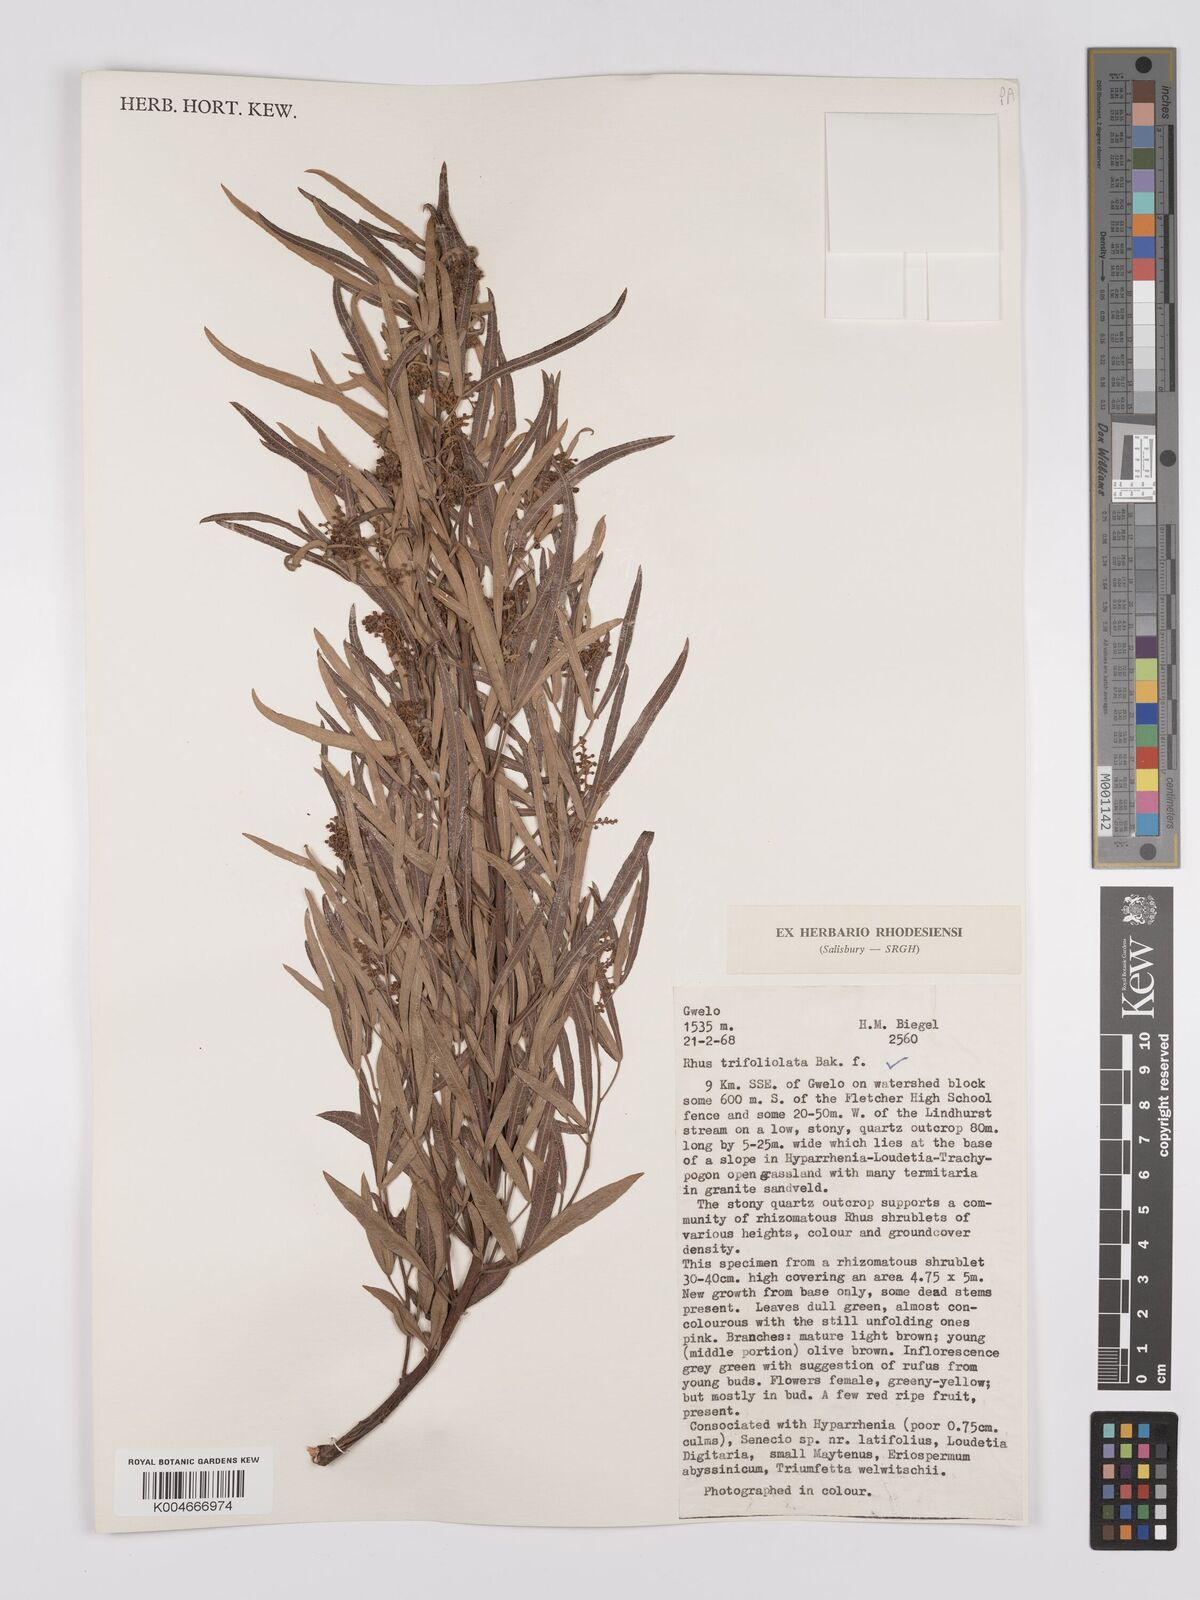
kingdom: Plantae
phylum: Tracheophyta
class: Magnoliopsida
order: Sapindales
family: Anacardiaceae
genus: Searsia
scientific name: Searsia magalismontana
